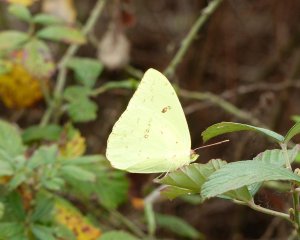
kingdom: Animalia
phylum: Arthropoda
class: Insecta
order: Lepidoptera
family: Pieridae
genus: Phoebis
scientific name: Phoebis sennae
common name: Cloudless Sulphur
